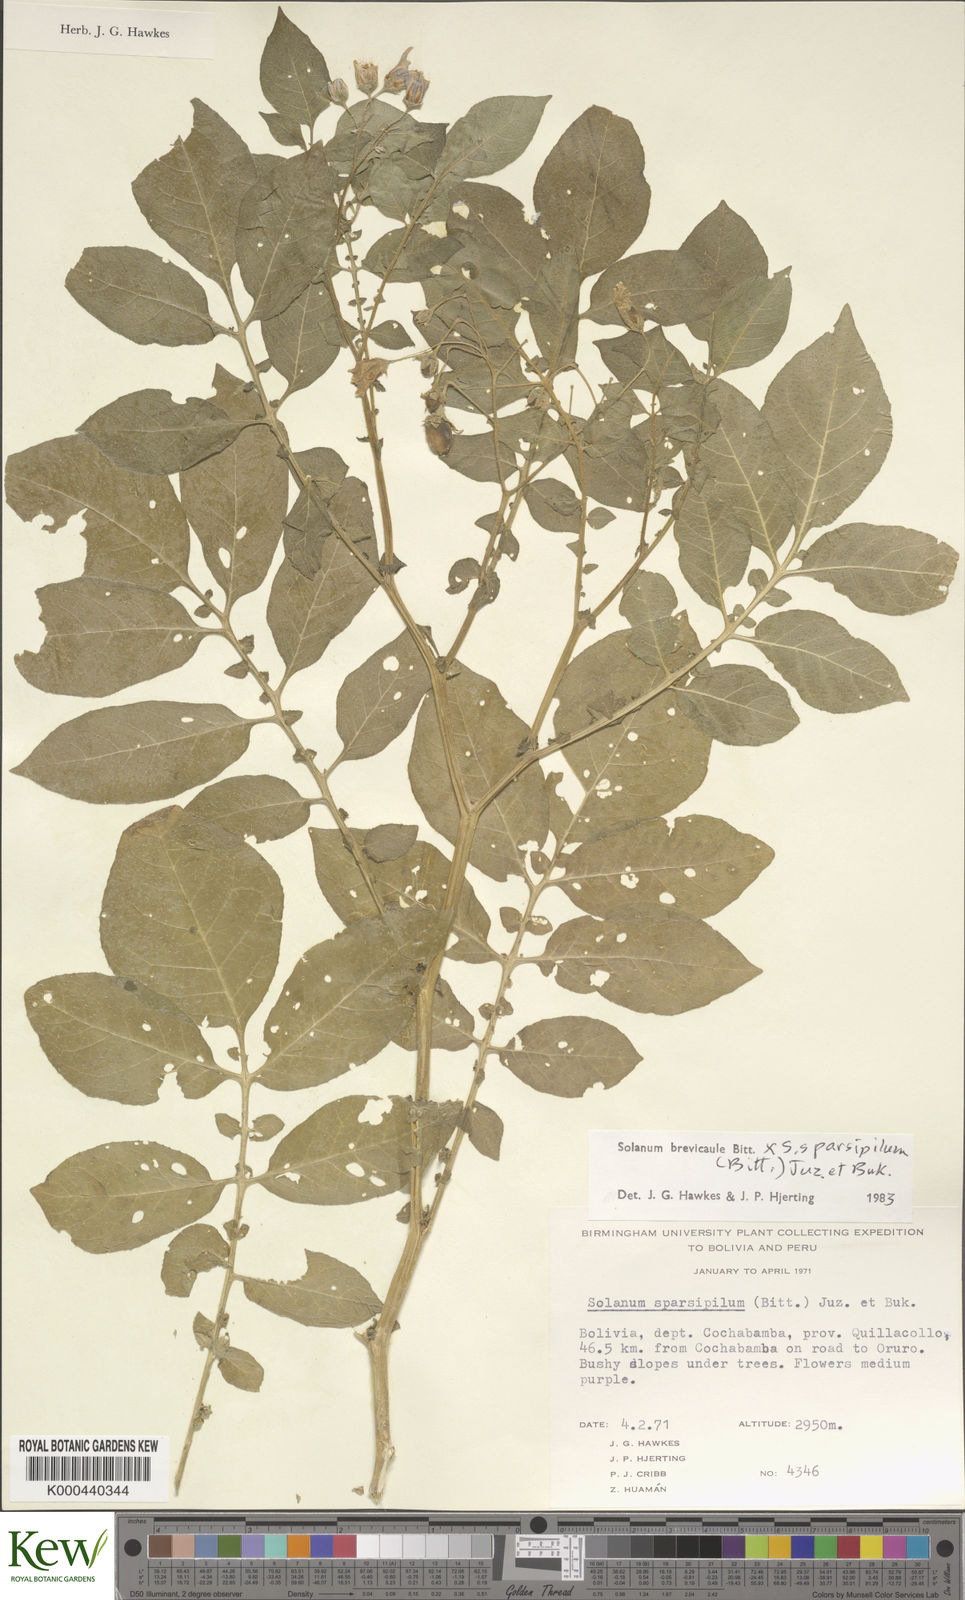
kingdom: Plantae
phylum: Tracheophyta
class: Magnoliopsida
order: Solanales
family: Solanaceae
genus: Solanum
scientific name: Solanum brevicaule
